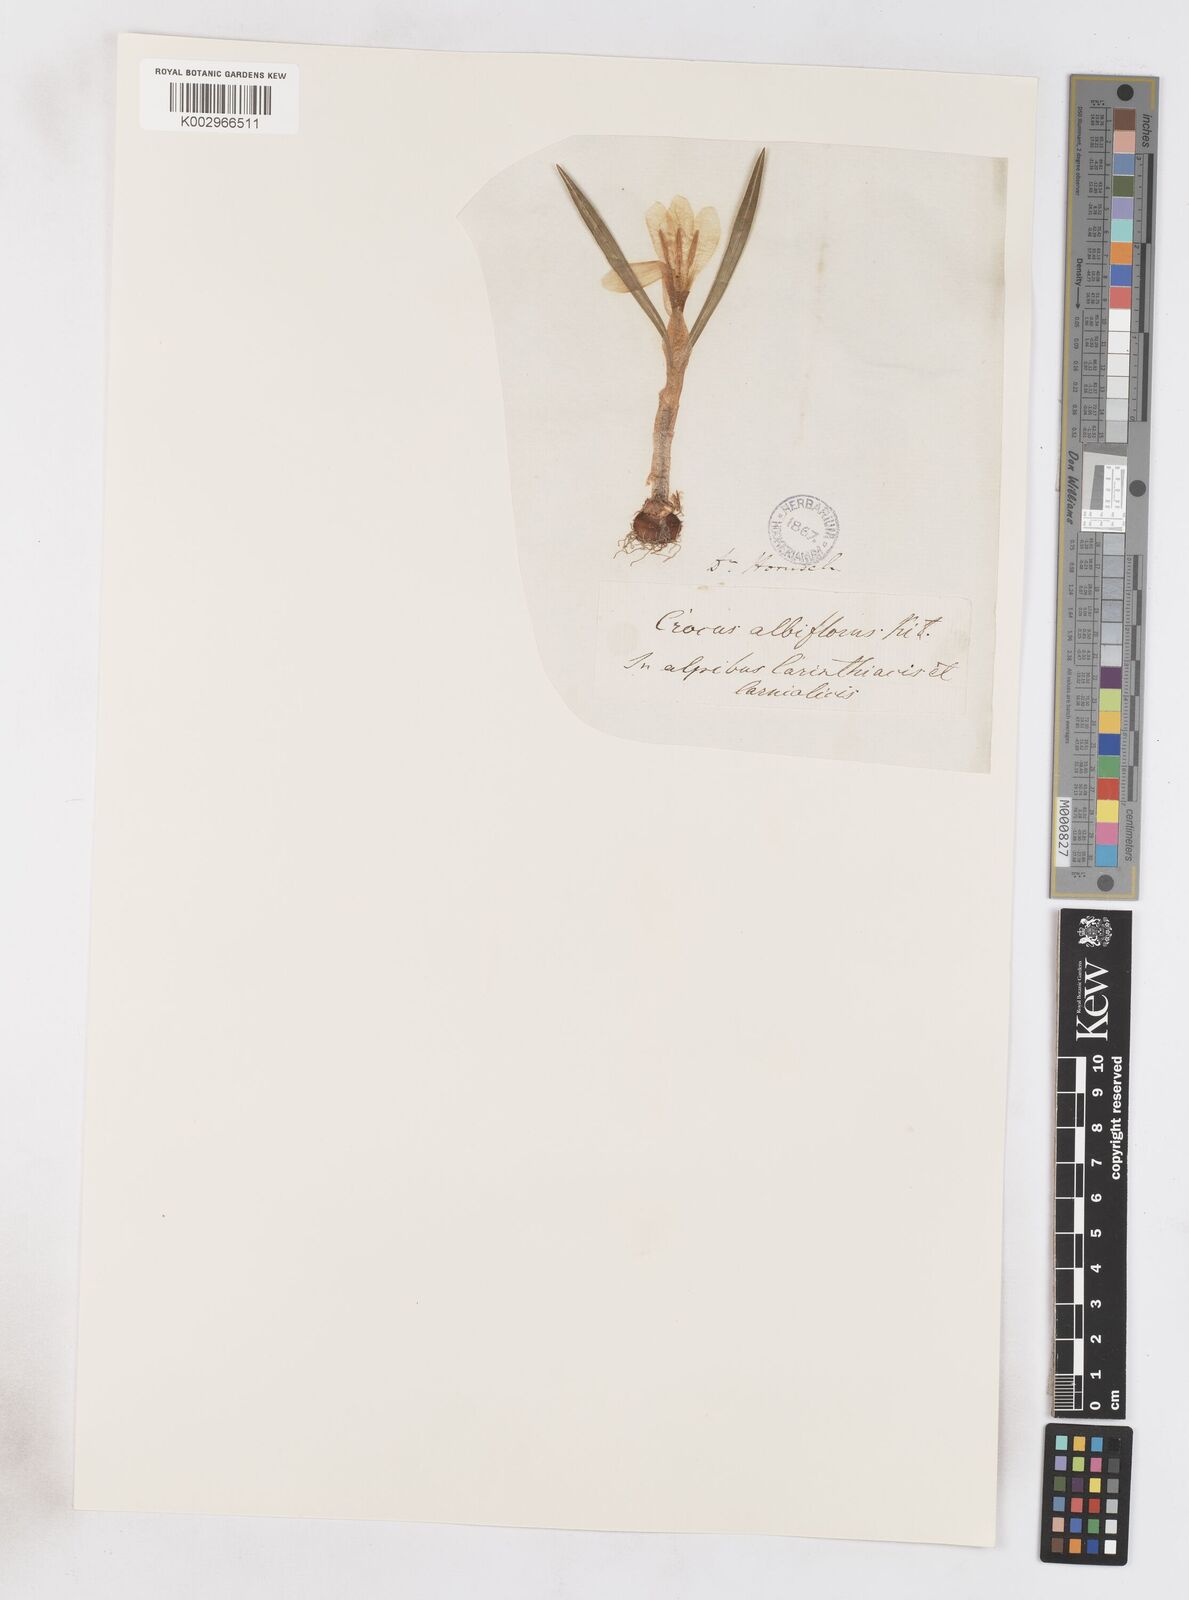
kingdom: Plantae
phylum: Tracheophyta
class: Liliopsida
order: Asparagales
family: Iridaceae
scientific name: Iridaceae
